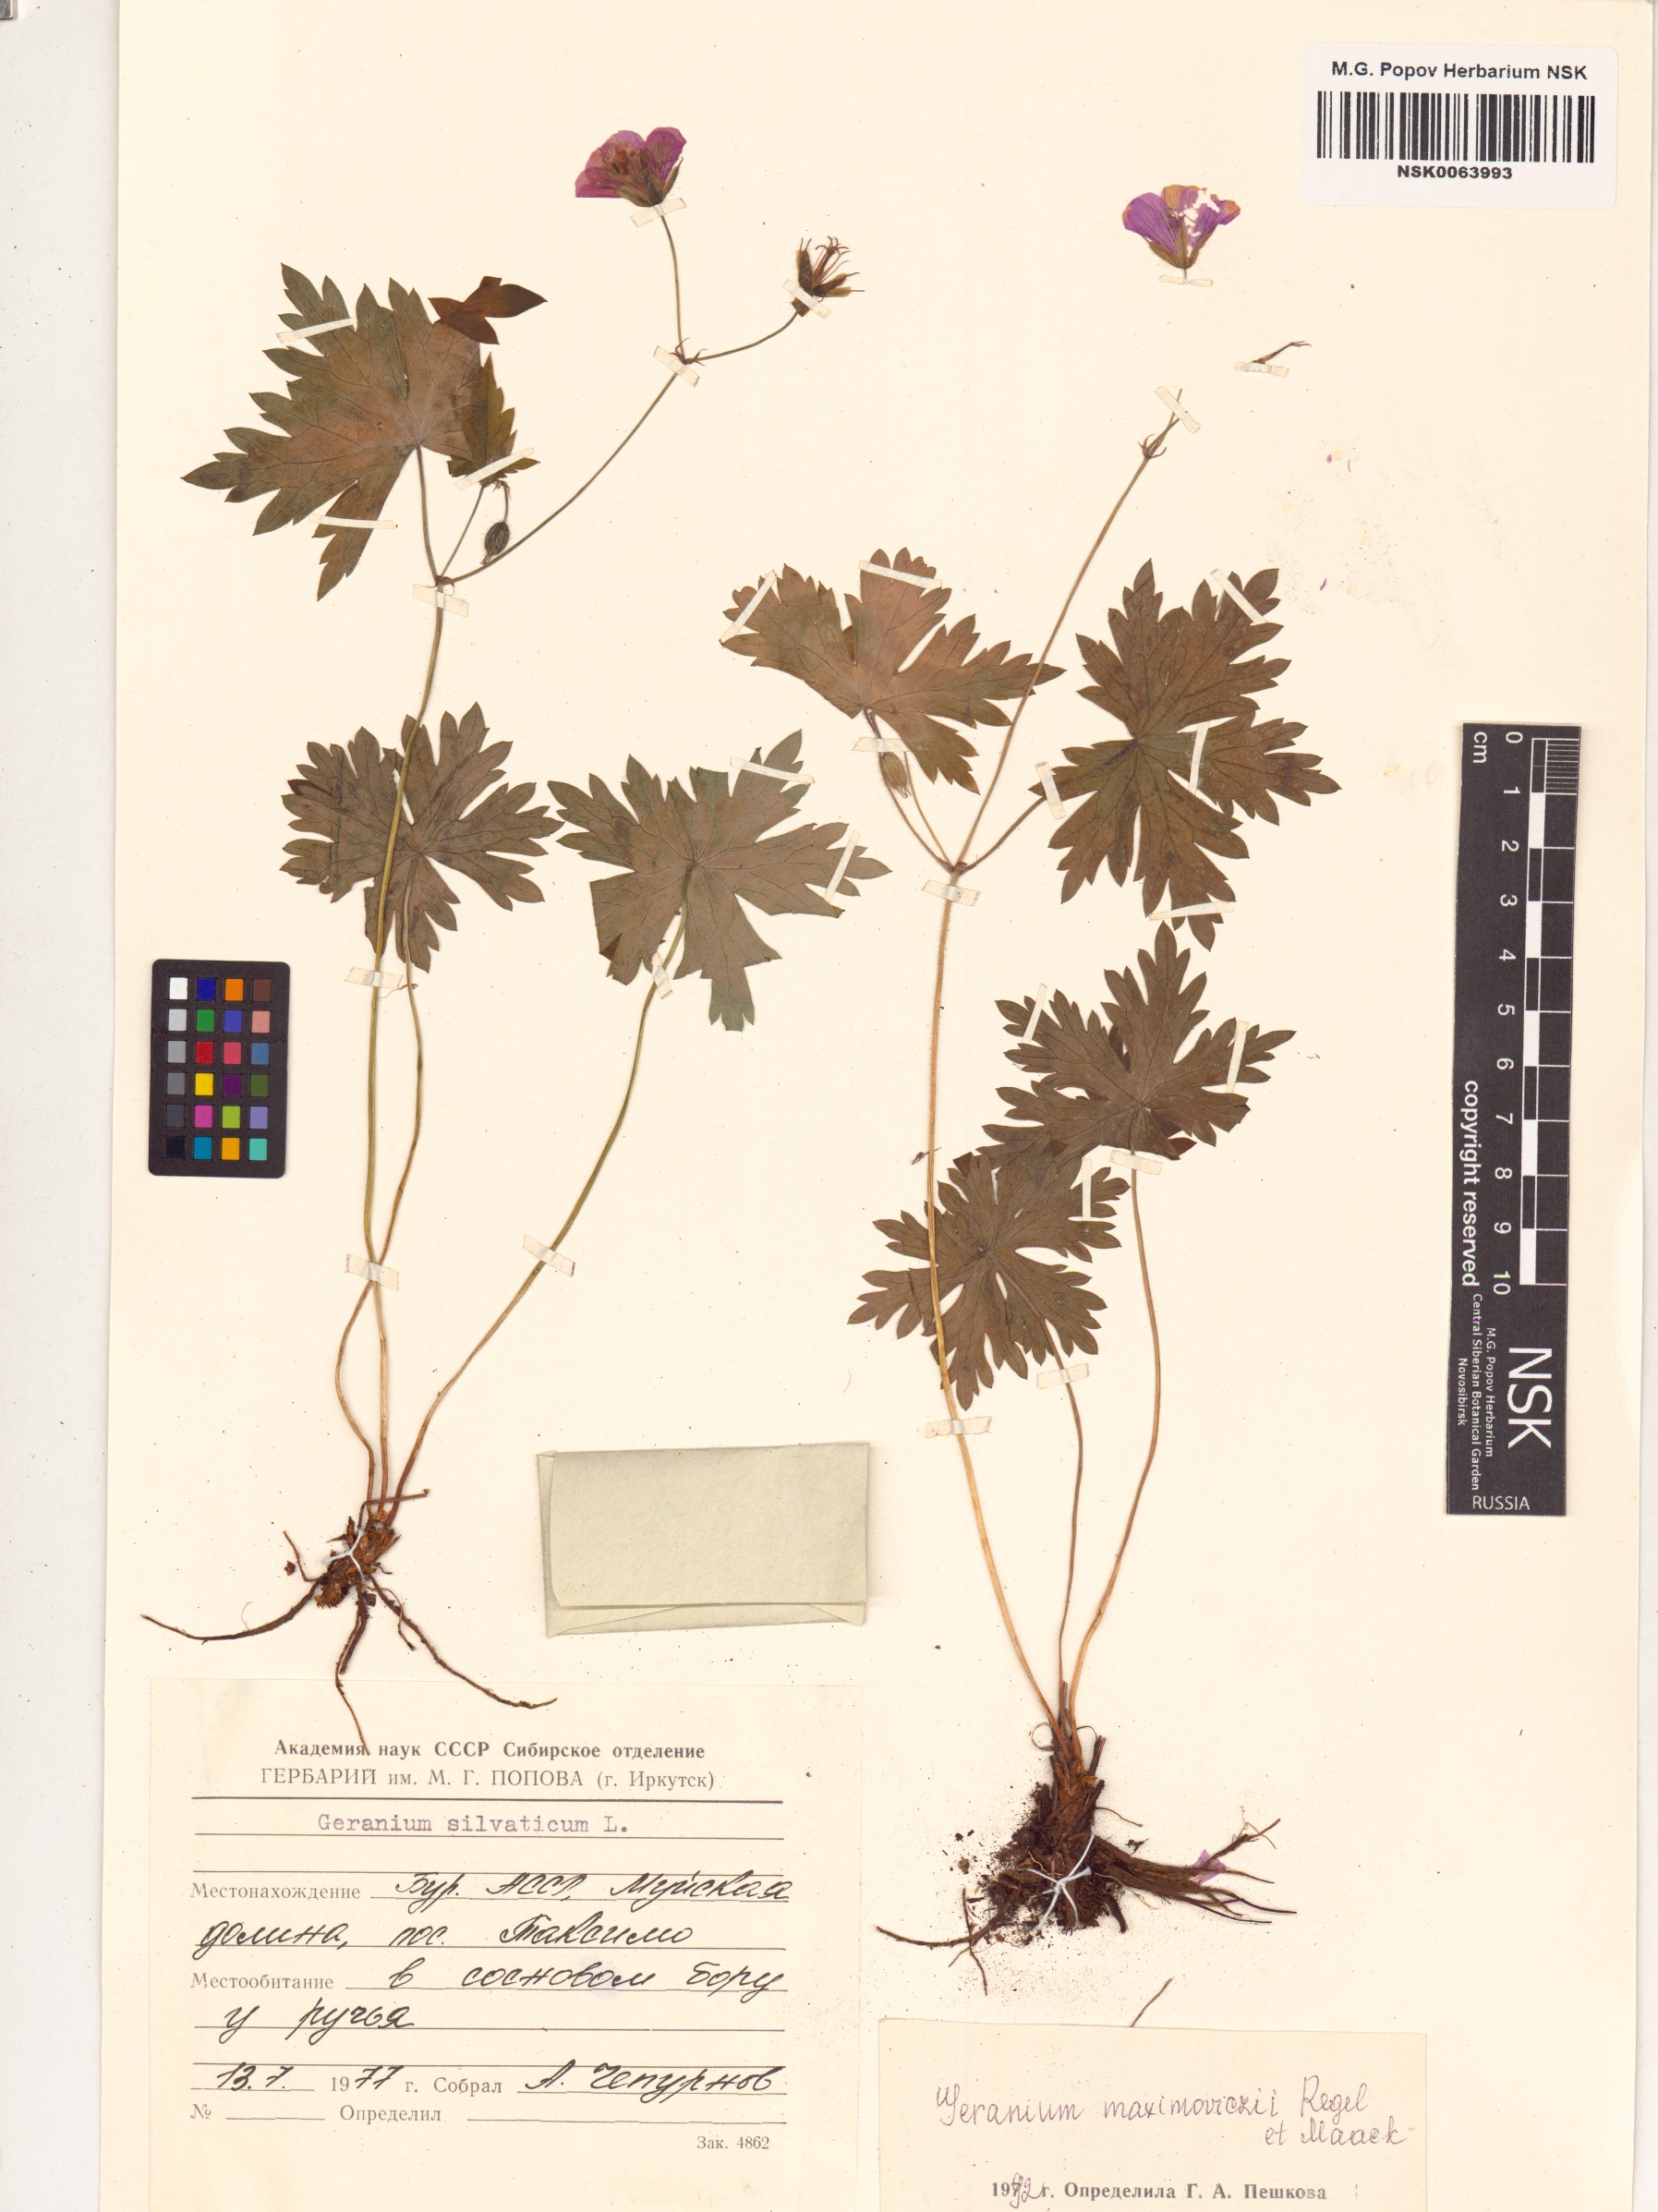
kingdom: Plantae
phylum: Tracheophyta
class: Magnoliopsida
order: Geraniales
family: Geraniaceae
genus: Geranium
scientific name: Geranium maximowiczii
